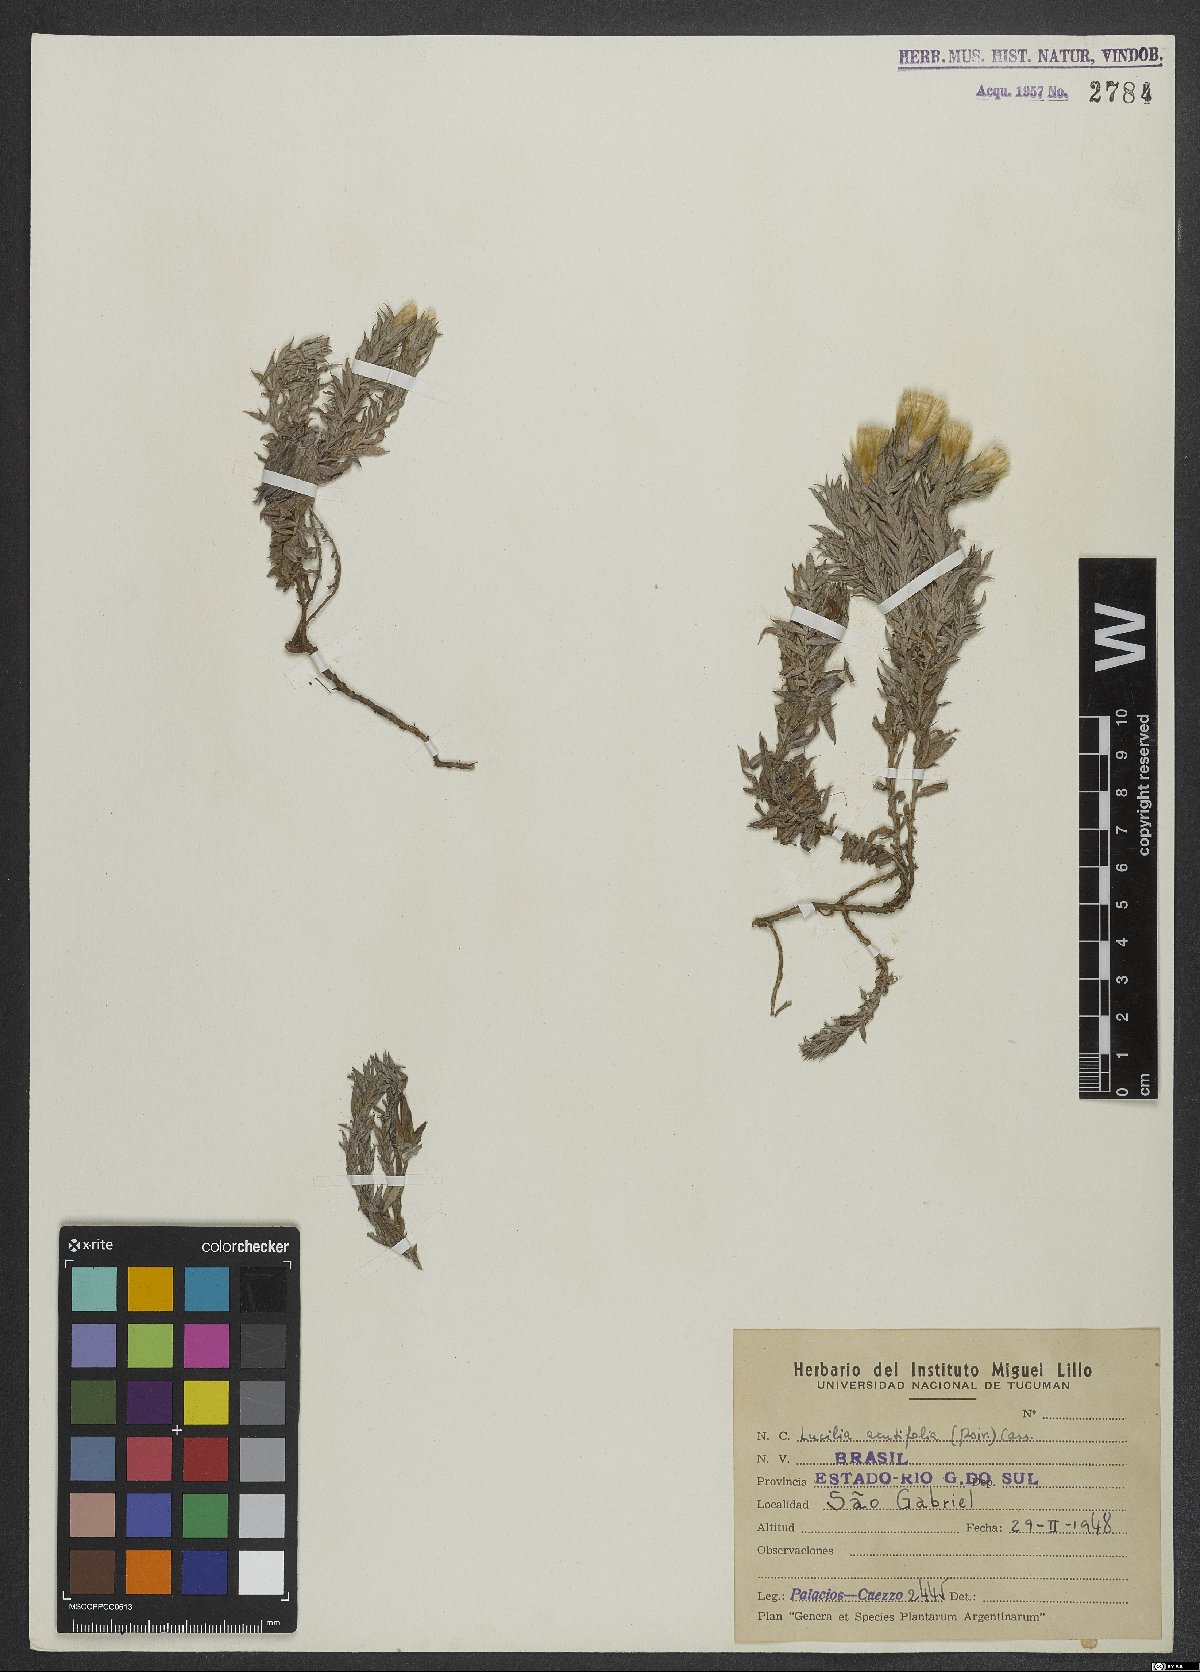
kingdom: Plantae
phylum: Tracheophyta
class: Magnoliopsida
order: Asterales
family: Asteraceae
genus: Lucilia
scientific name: Lucilia acutifolia
